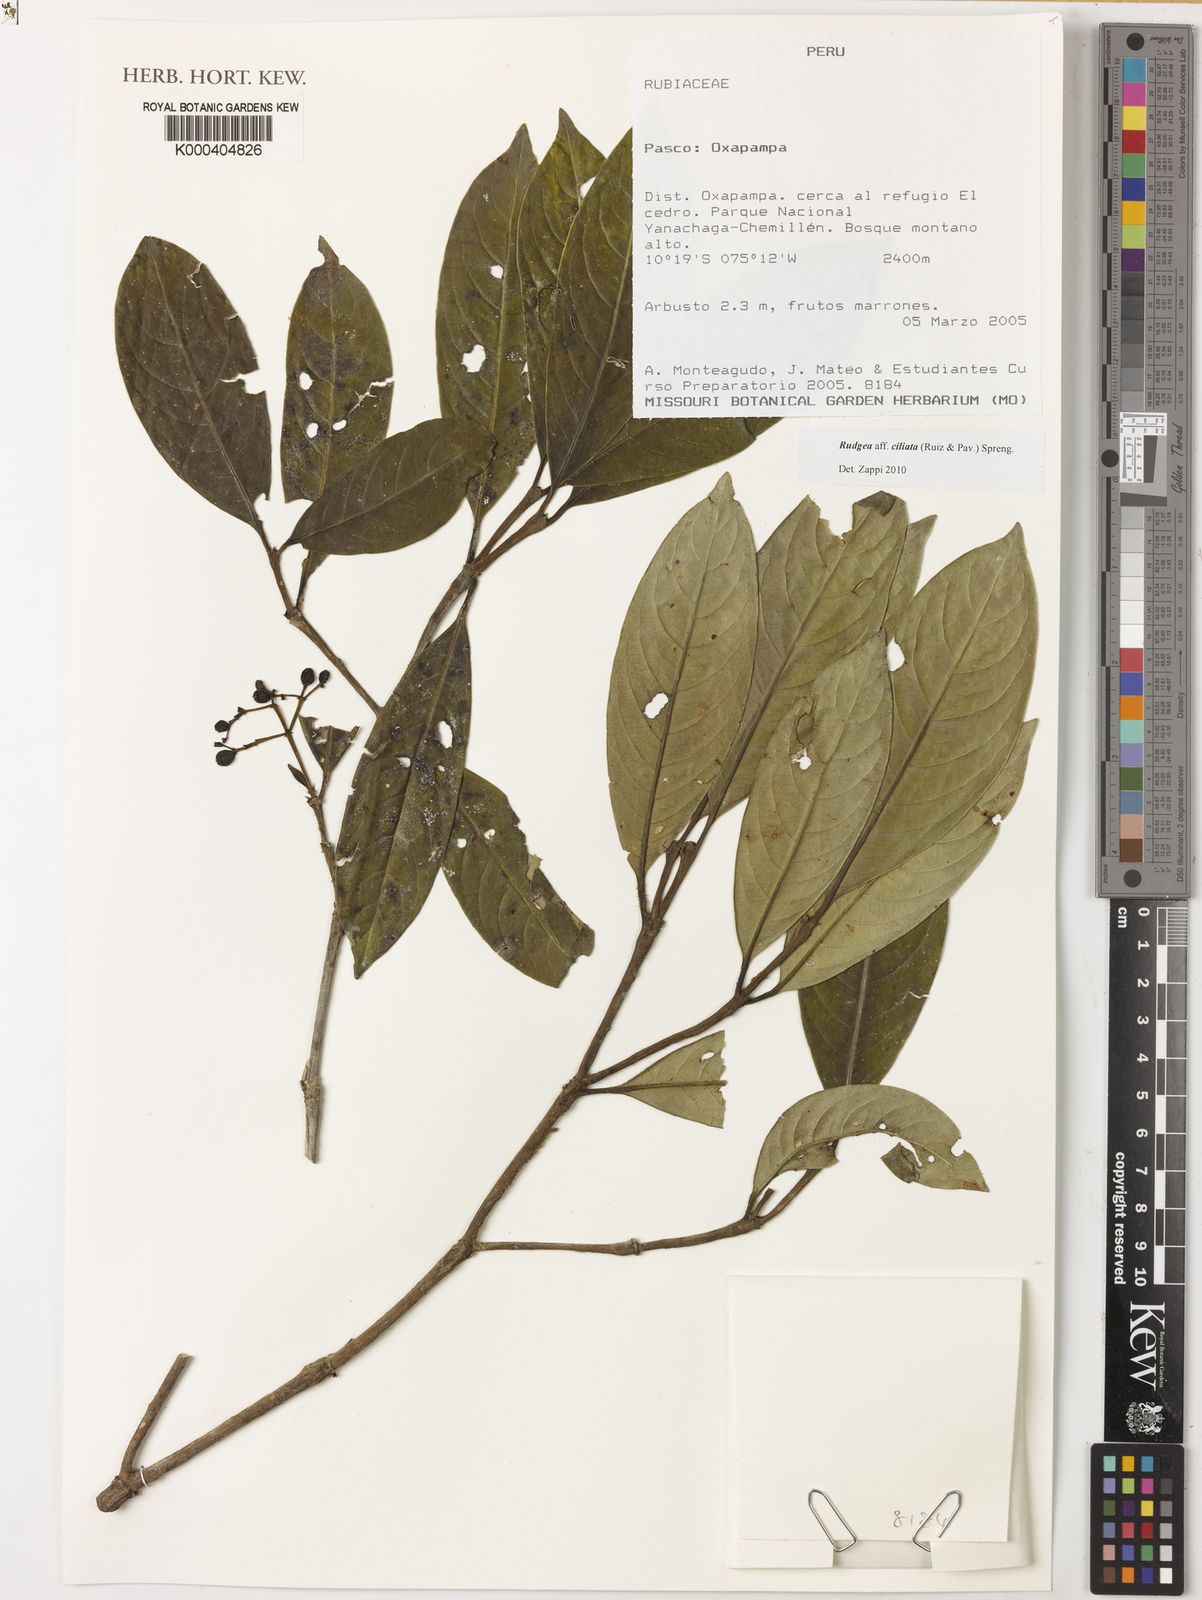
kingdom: Plantae
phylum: Tracheophyta
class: Magnoliopsida
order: Gentianales
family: Rubiaceae
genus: Rudgea
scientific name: Rudgea ciliata
